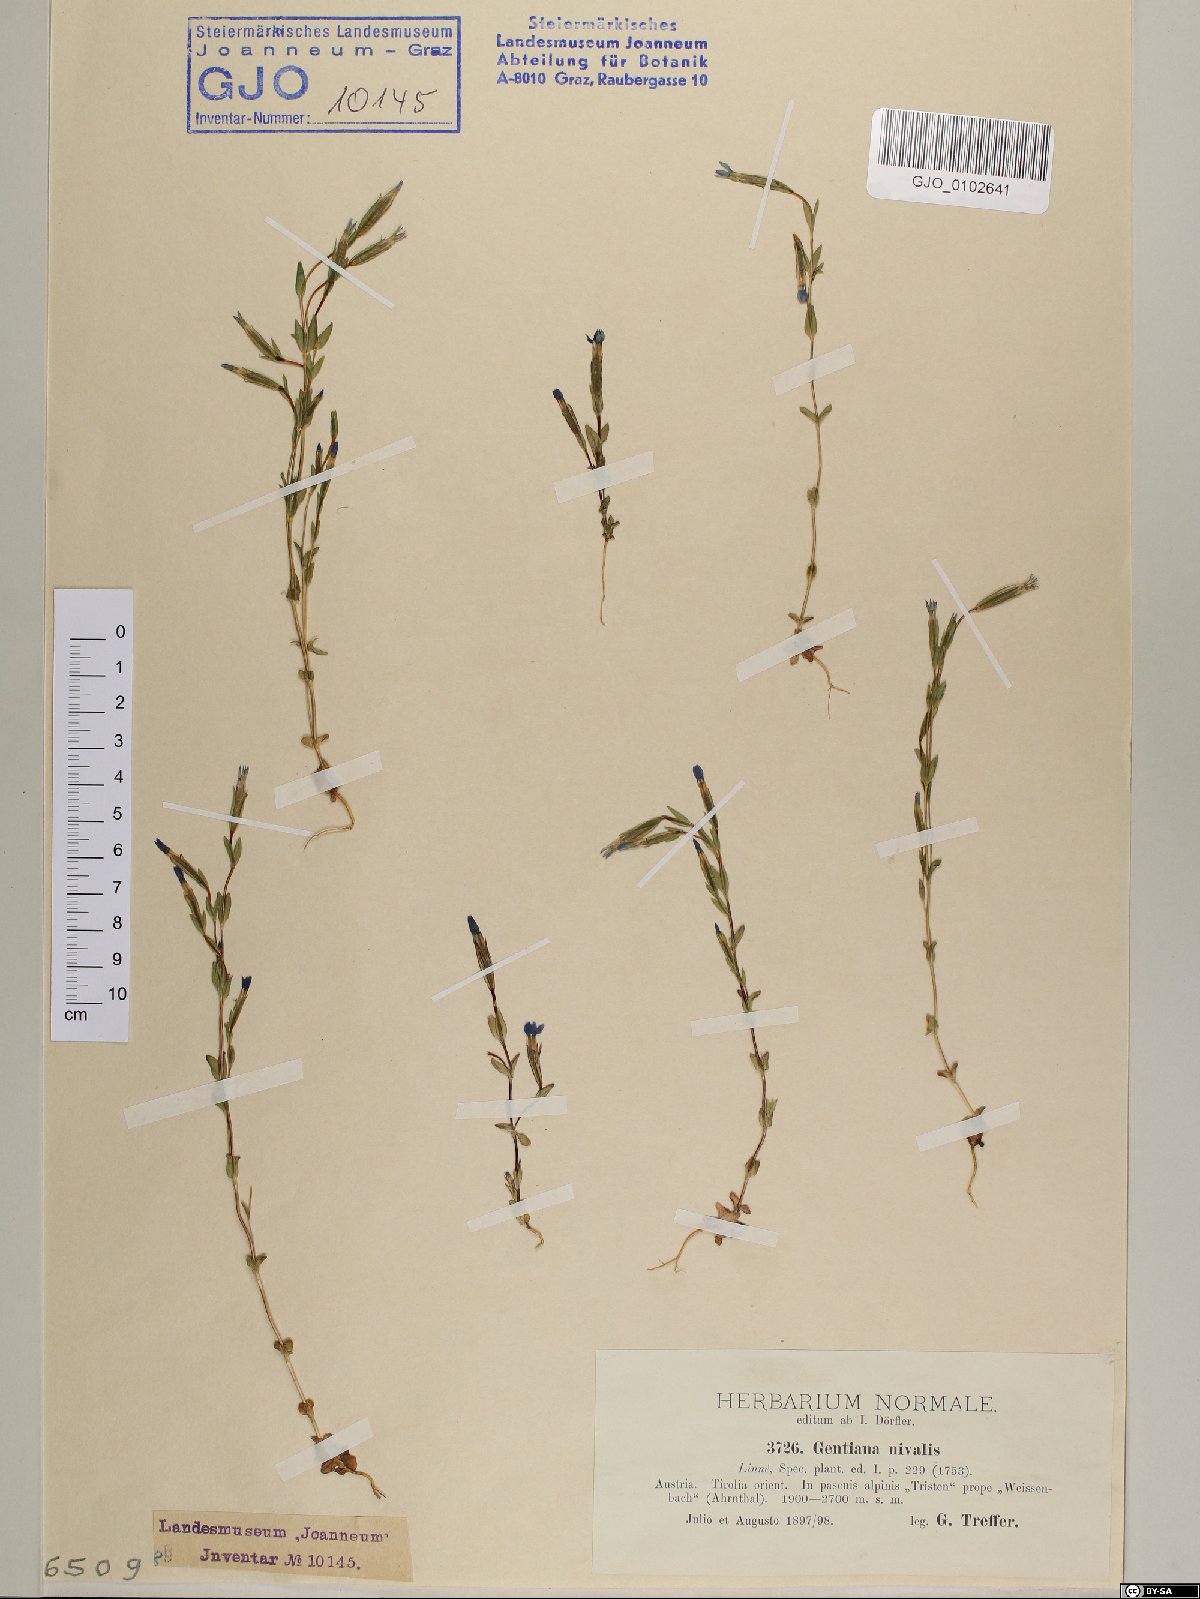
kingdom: Plantae
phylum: Tracheophyta
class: Magnoliopsida
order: Gentianales
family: Gentianaceae
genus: Gentiana
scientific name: Gentiana nivalis
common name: Alpine gentian
